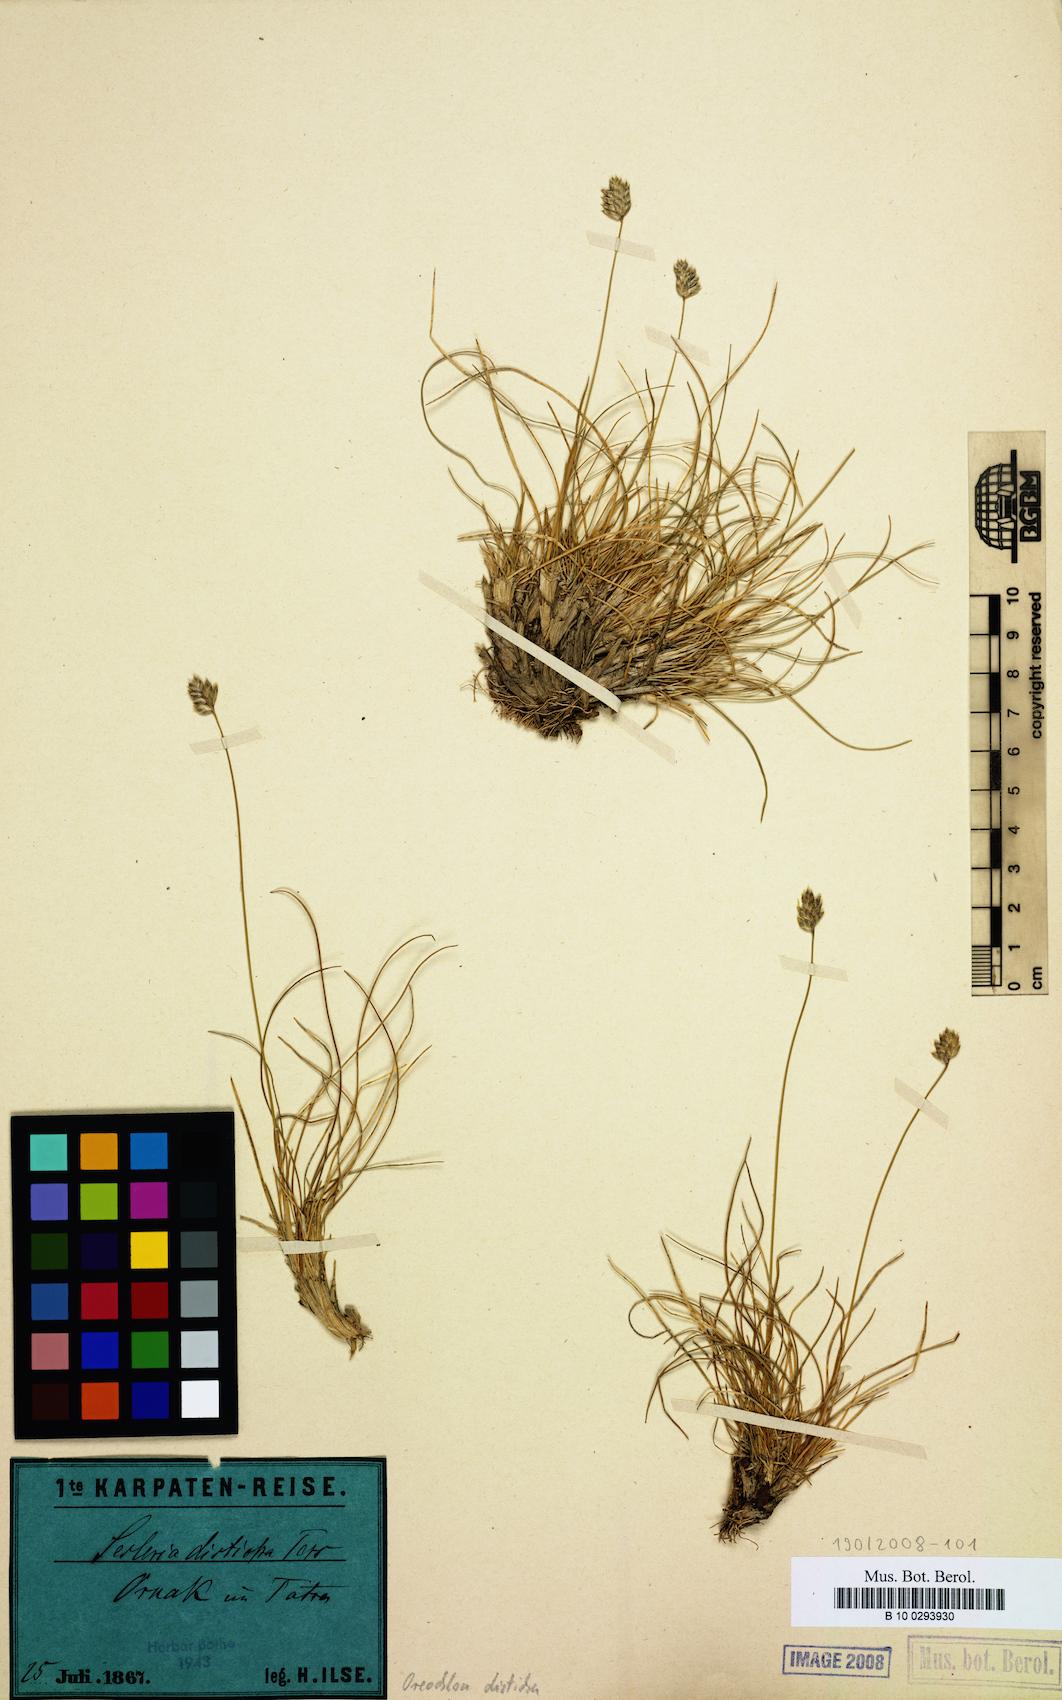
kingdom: Plantae
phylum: Tracheophyta
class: Liliopsida
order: Poales
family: Poaceae
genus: Oreochloa
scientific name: Oreochloa disticha
